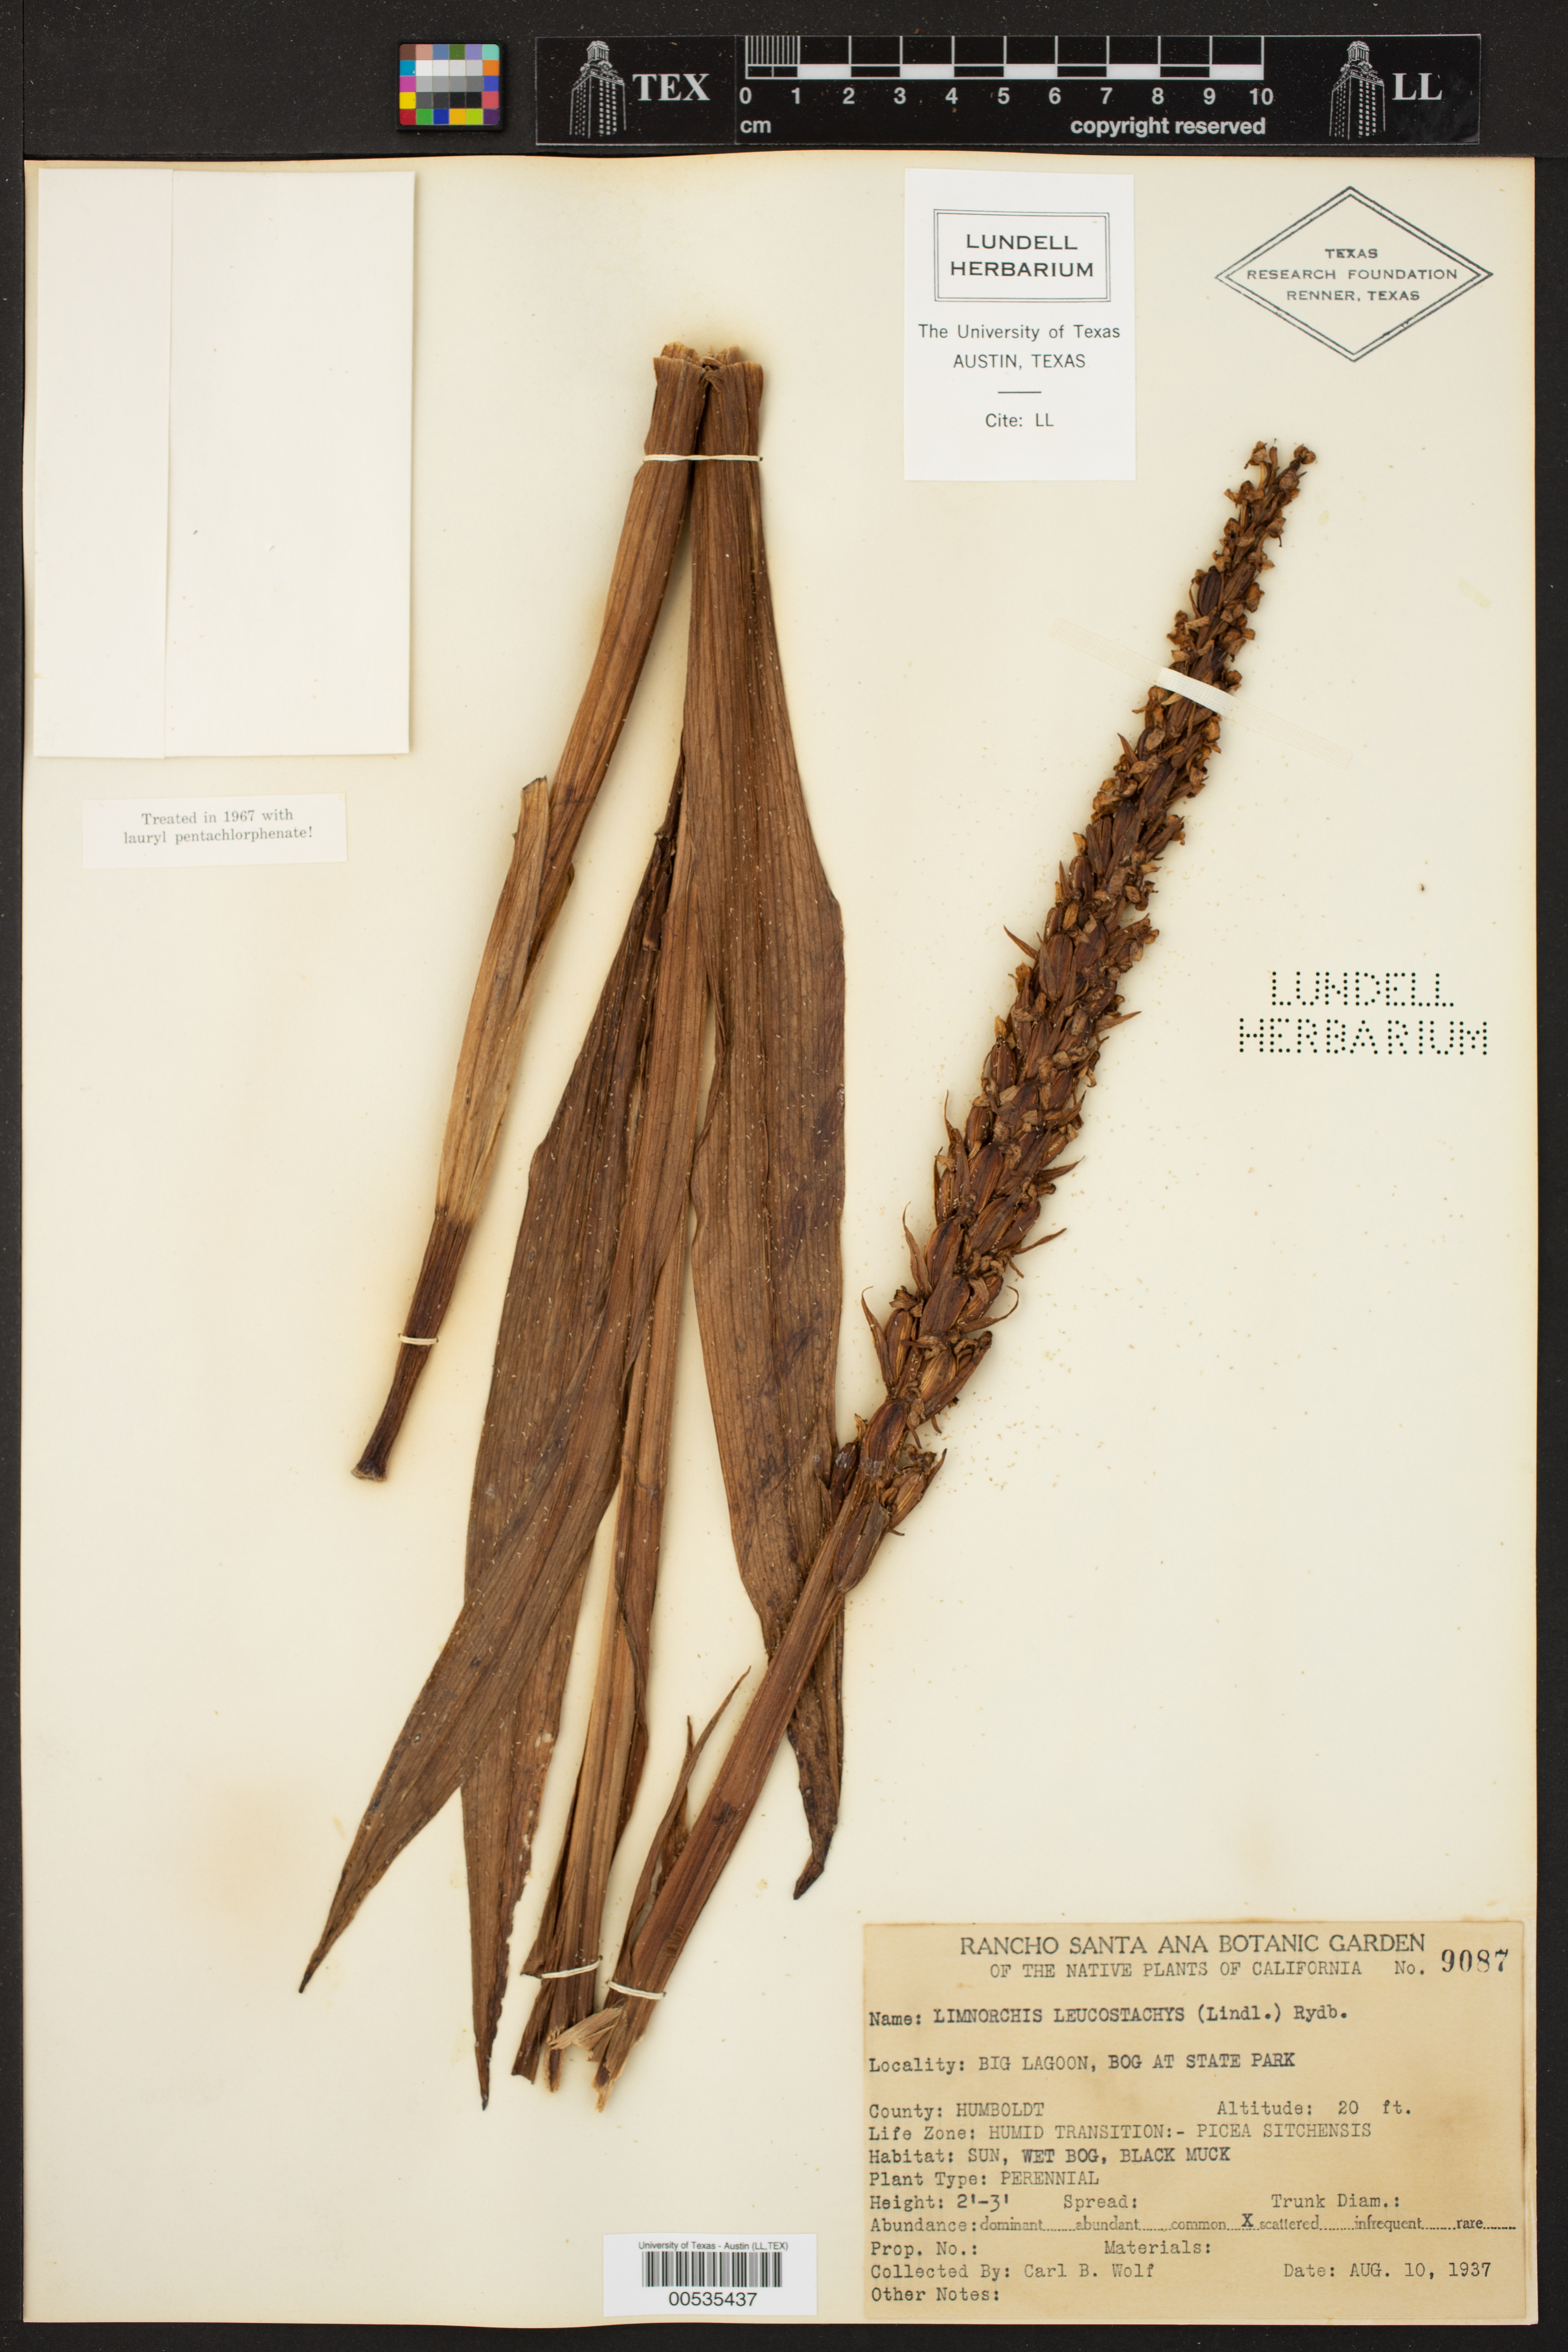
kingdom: Plantae
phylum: Tracheophyta
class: Liliopsida
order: Asparagales
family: Orchidaceae
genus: Platanthera
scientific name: Platanthera dilatata
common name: Bog candles
